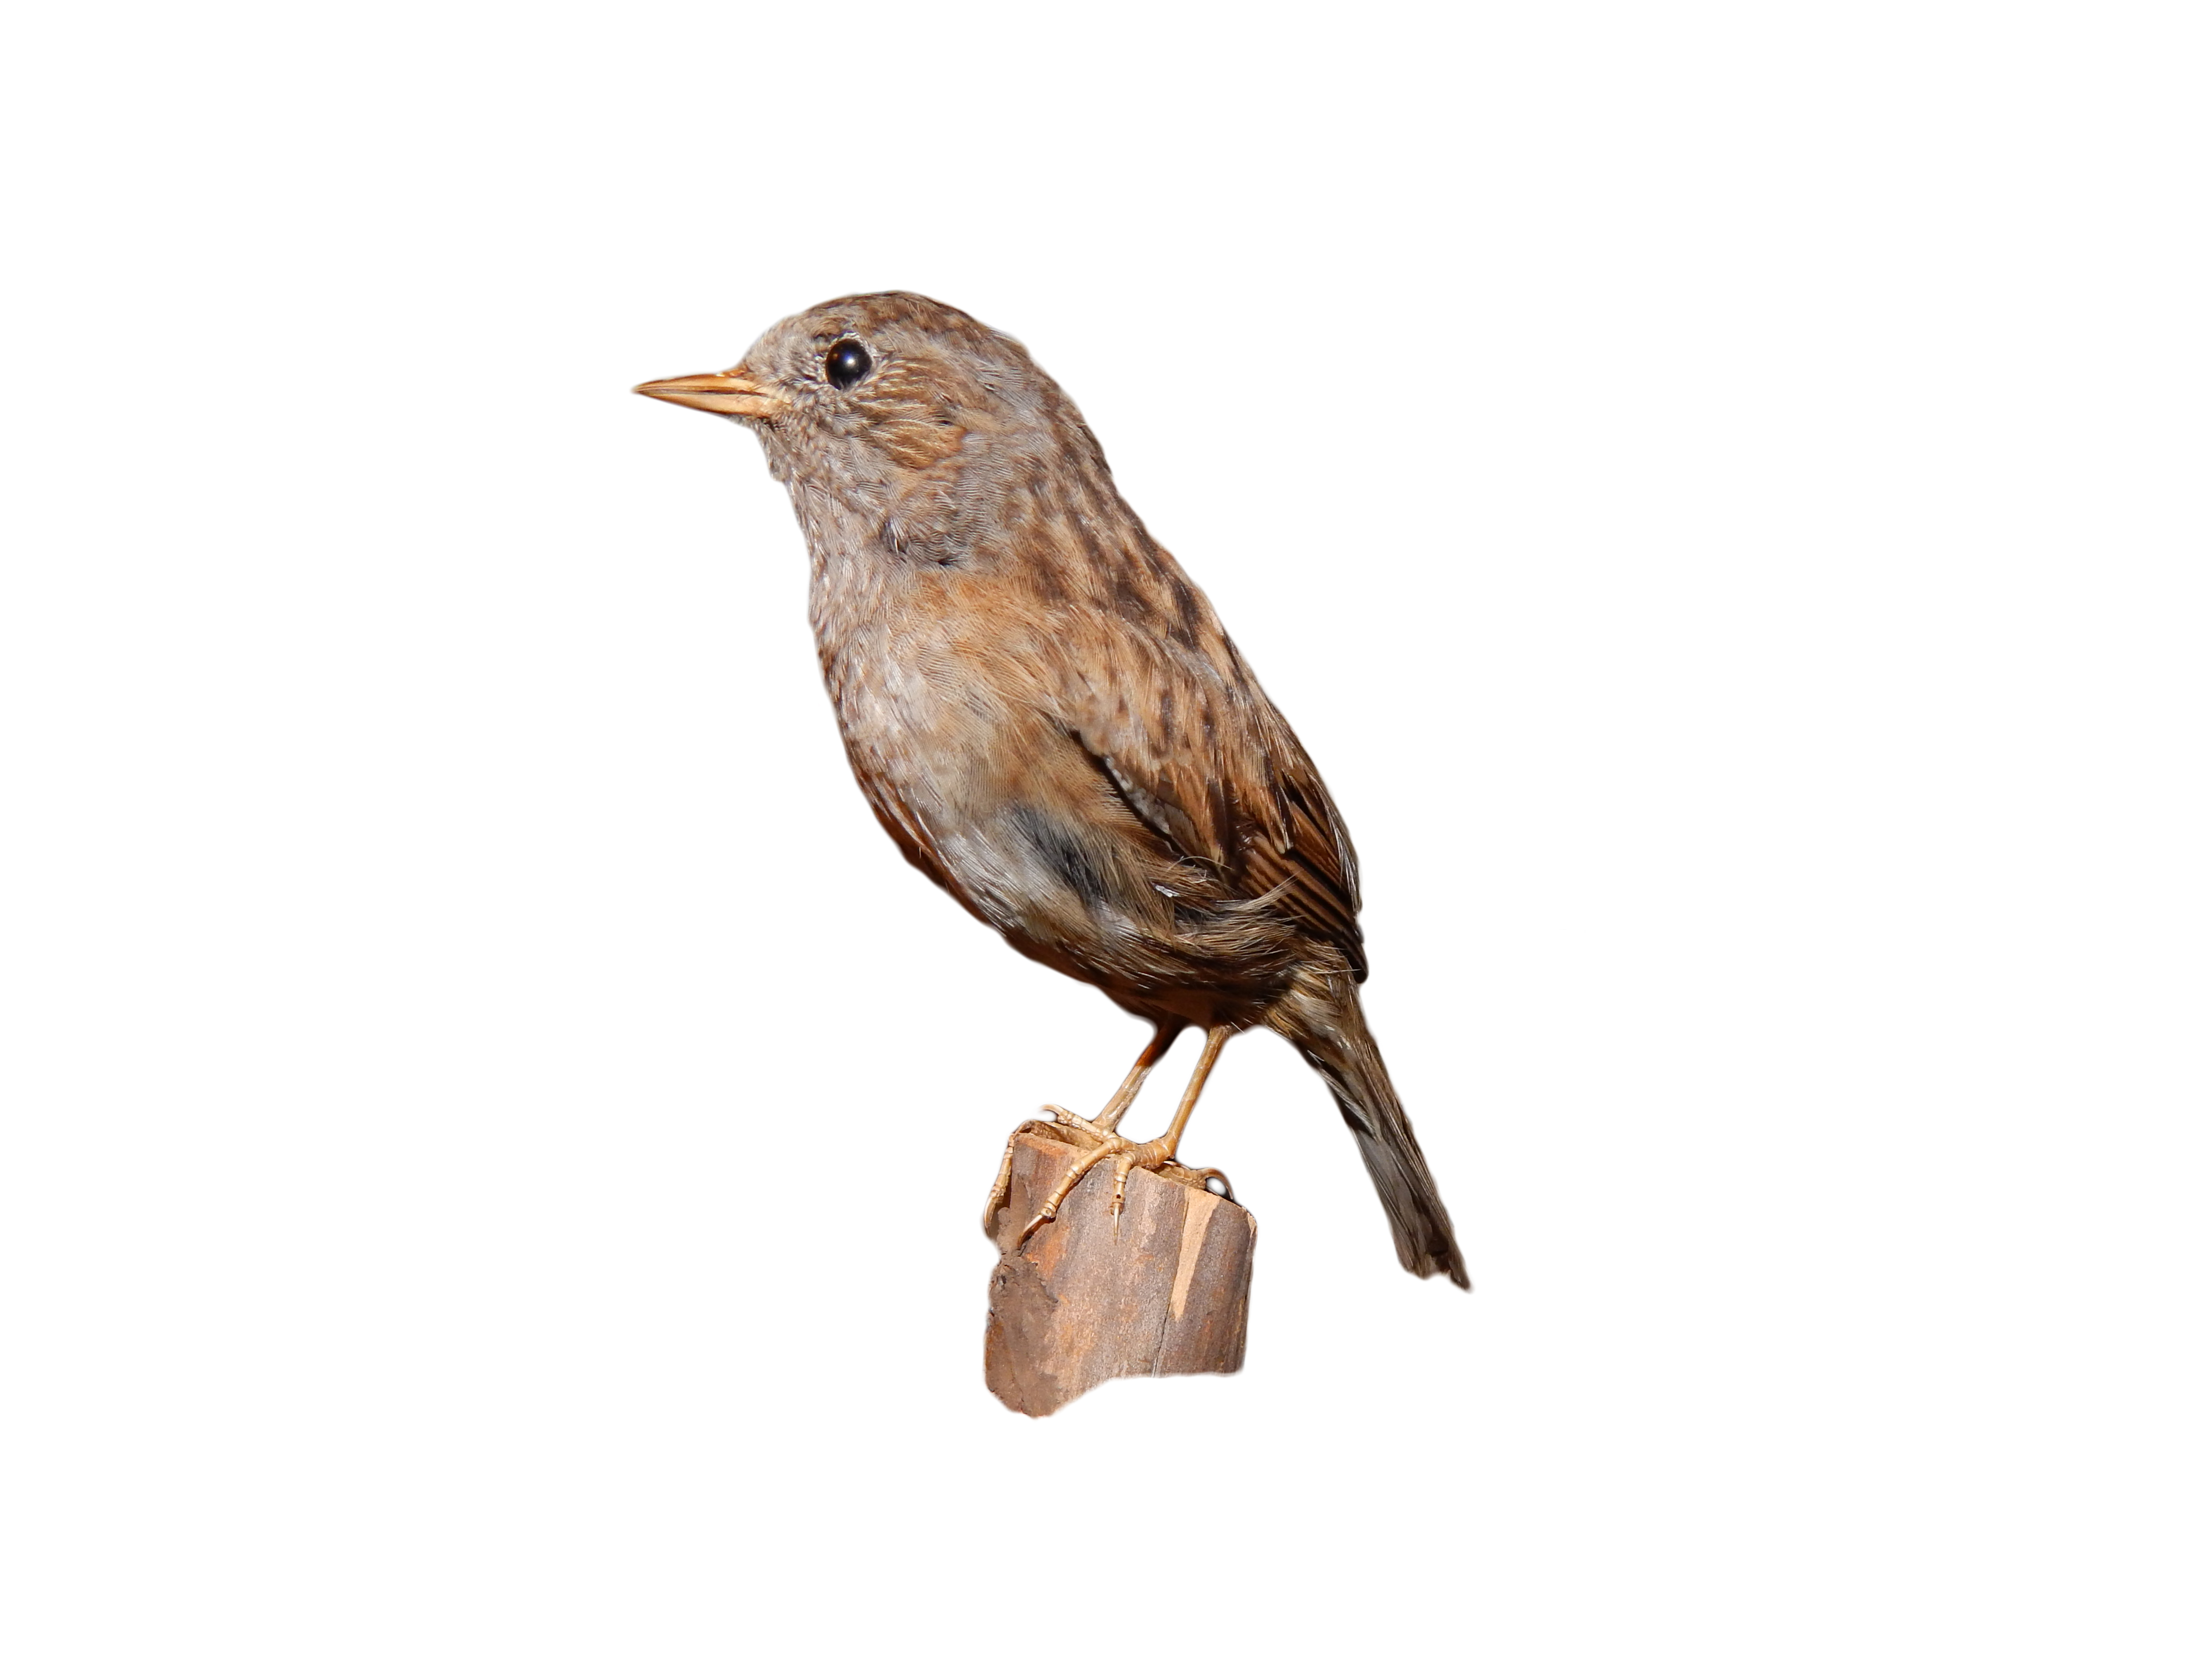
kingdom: Animalia
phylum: Chordata
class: Aves
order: Passeriformes
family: Prunellidae
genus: Prunella
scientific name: Prunella modularis
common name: Dunnock
